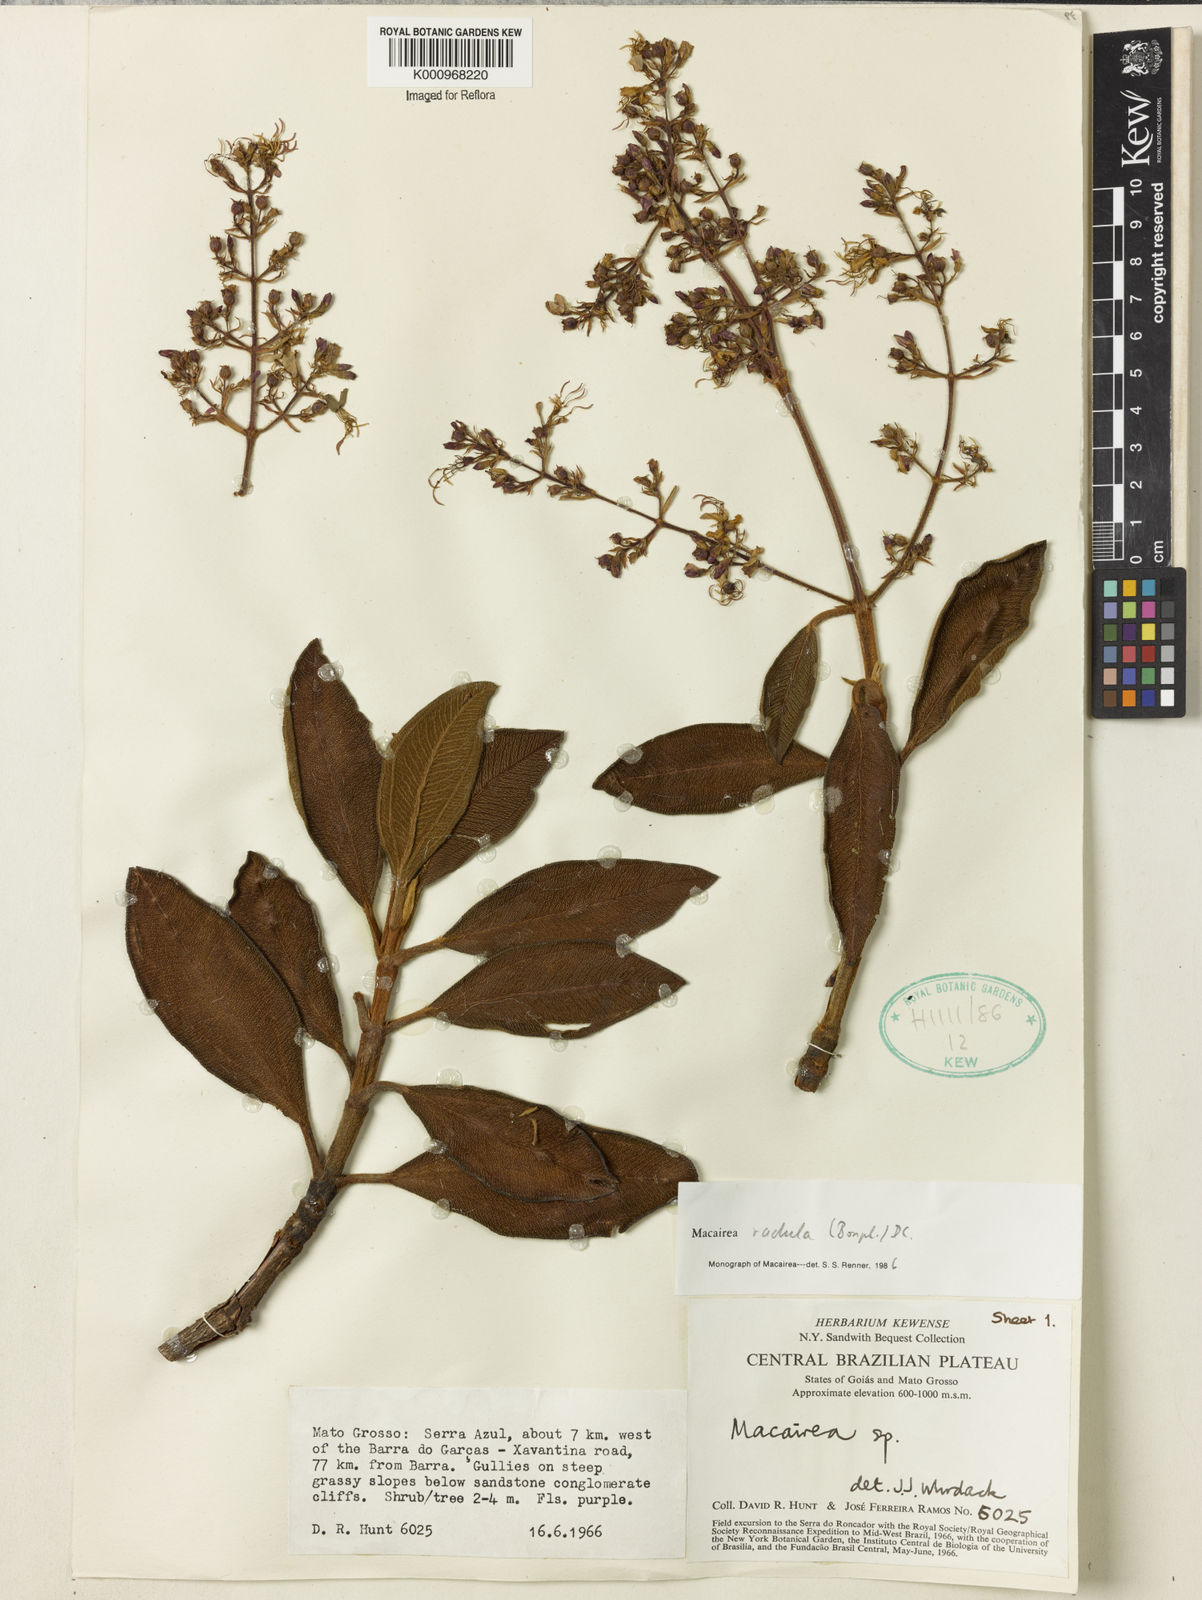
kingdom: Plantae
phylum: Tracheophyta
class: Magnoliopsida
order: Myrtales
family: Melastomataceae
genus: Macairea
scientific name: Macairea radula
